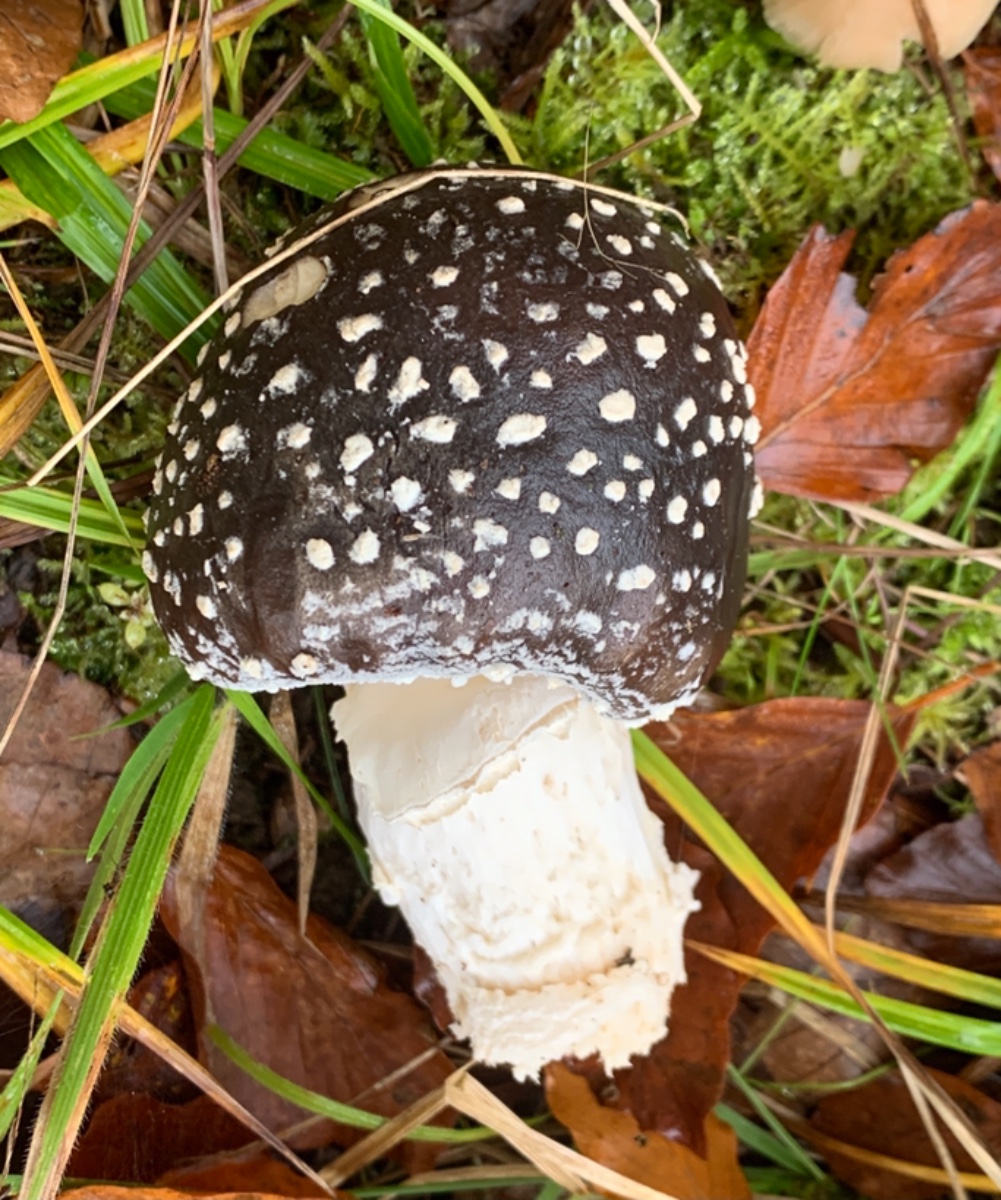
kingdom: Fungi
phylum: Basidiomycota
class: Agaricomycetes
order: Agaricales
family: Amanitaceae
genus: Amanita
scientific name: Amanita pantherina
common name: panter-fluesvamp
